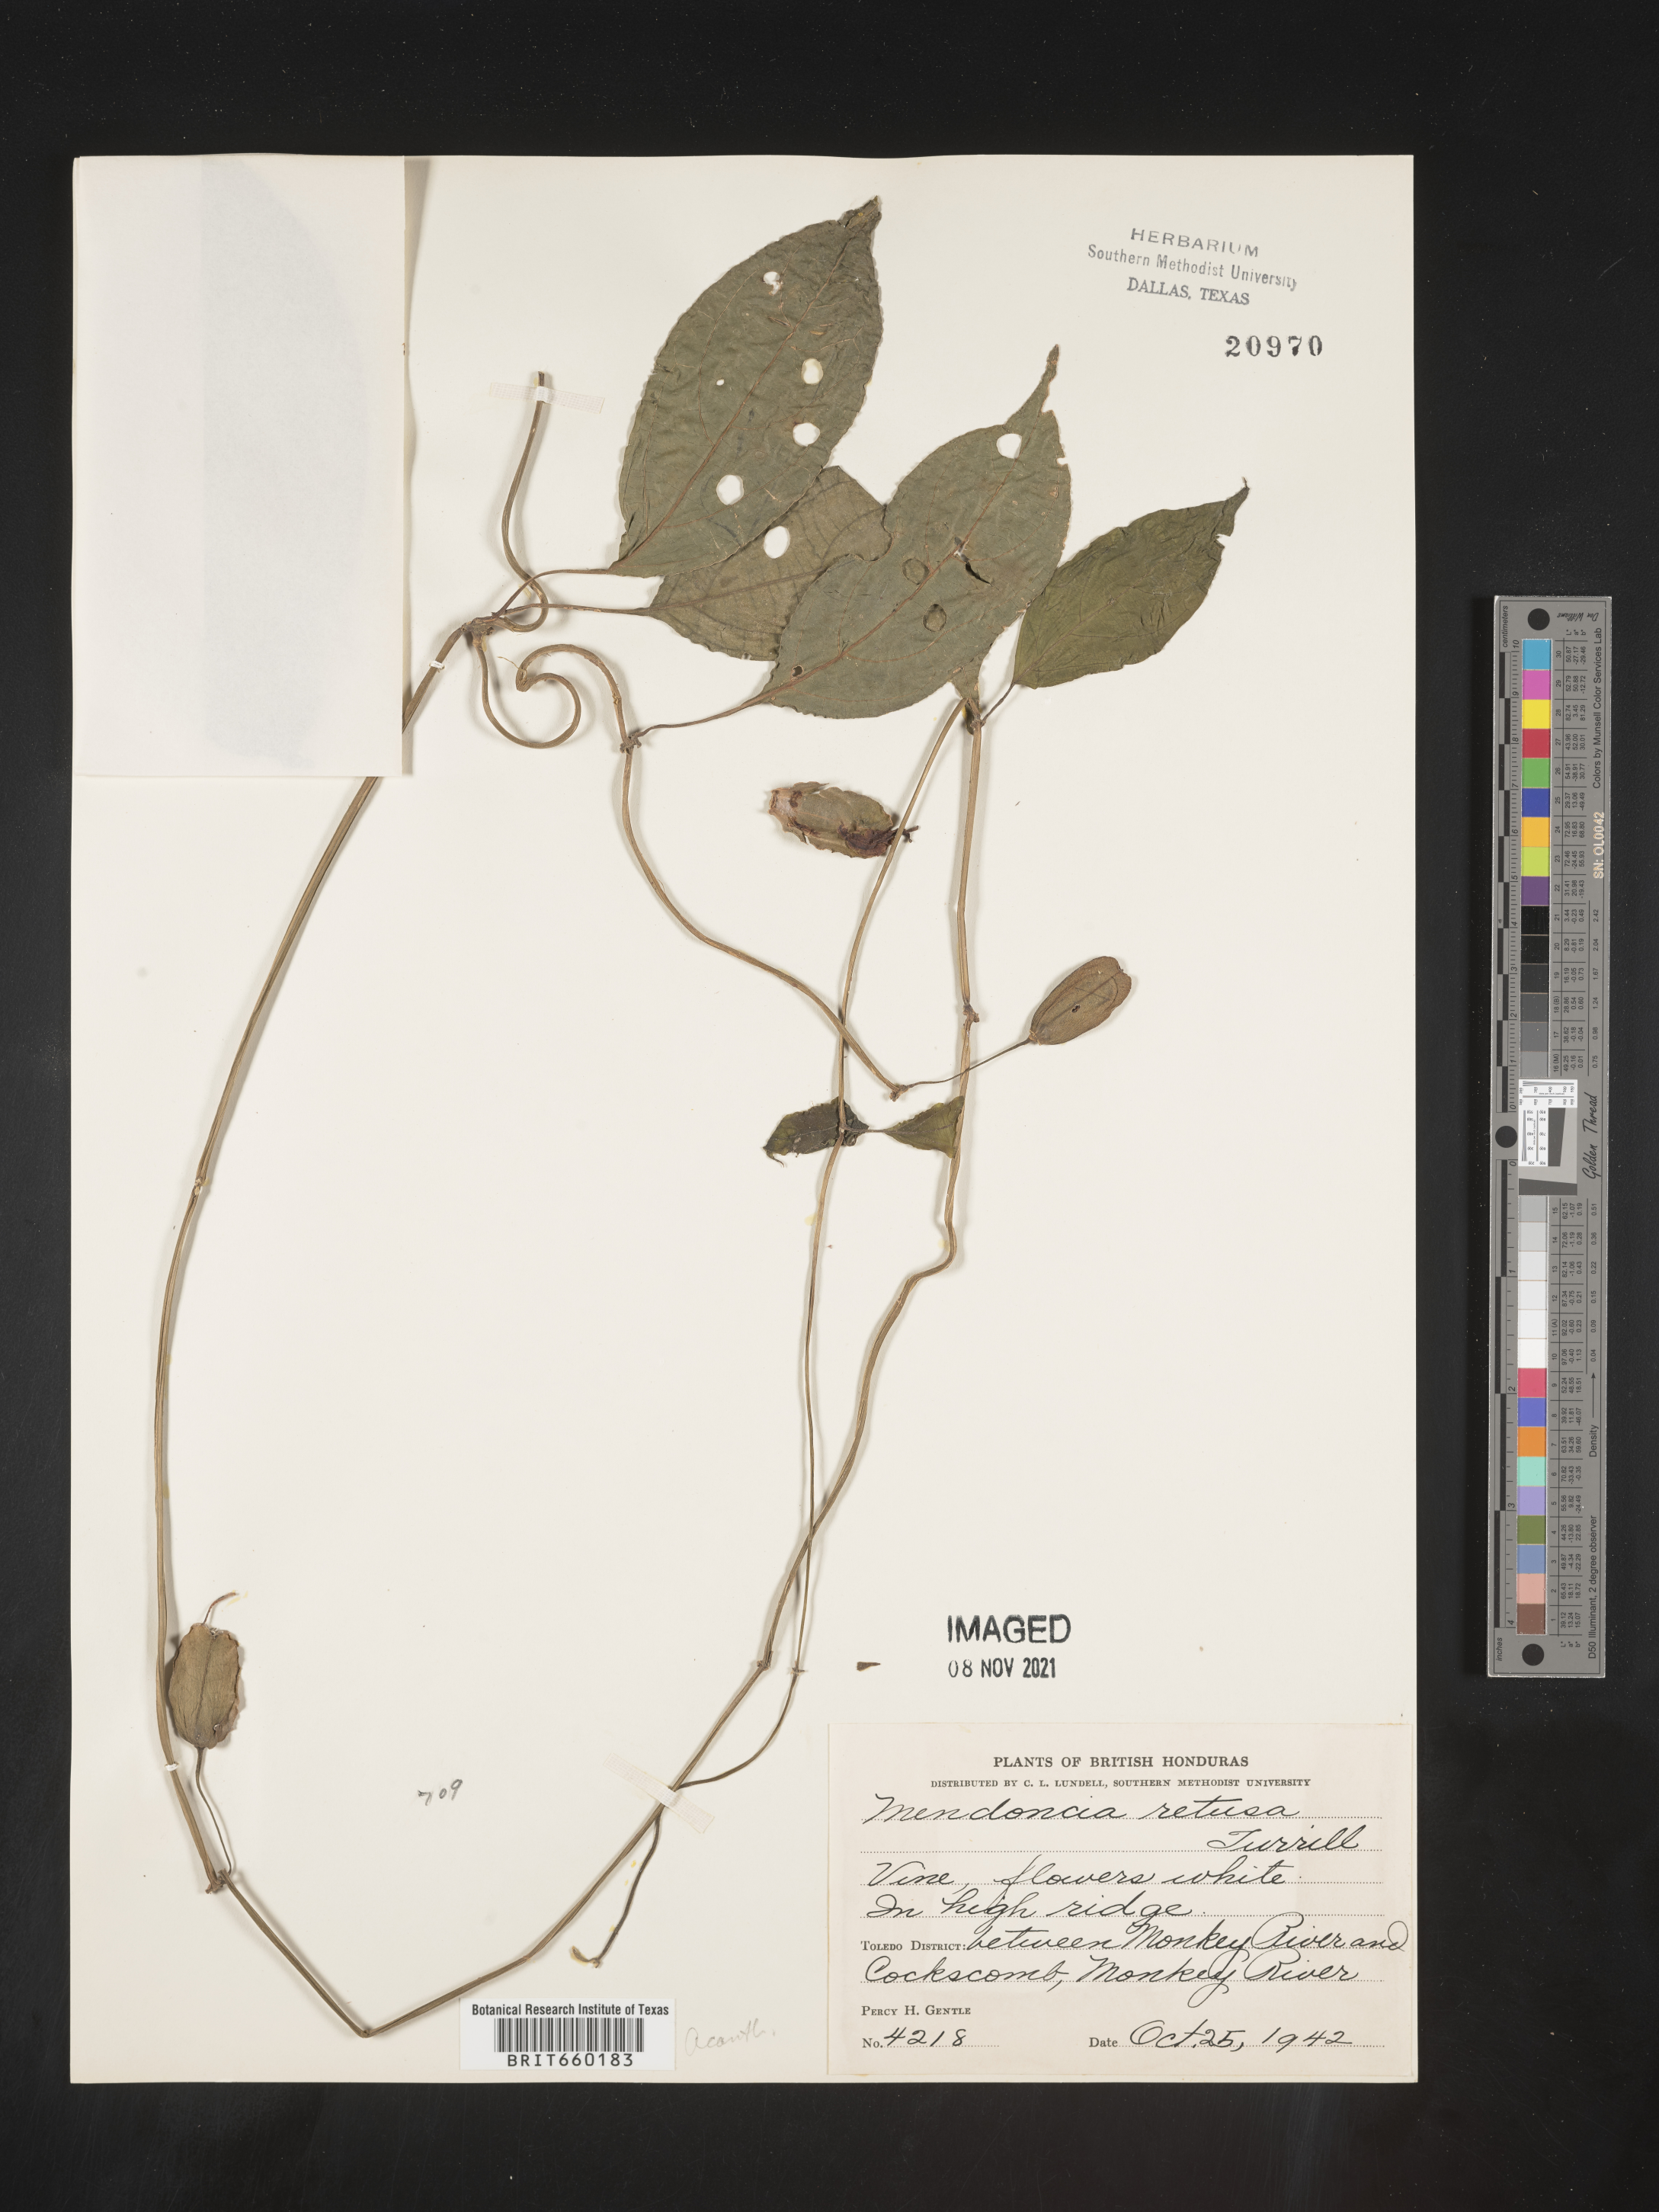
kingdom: Plantae
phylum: Tracheophyta
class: Magnoliopsida
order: Lamiales
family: Acanthaceae
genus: Mendoncia
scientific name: Mendoncia
